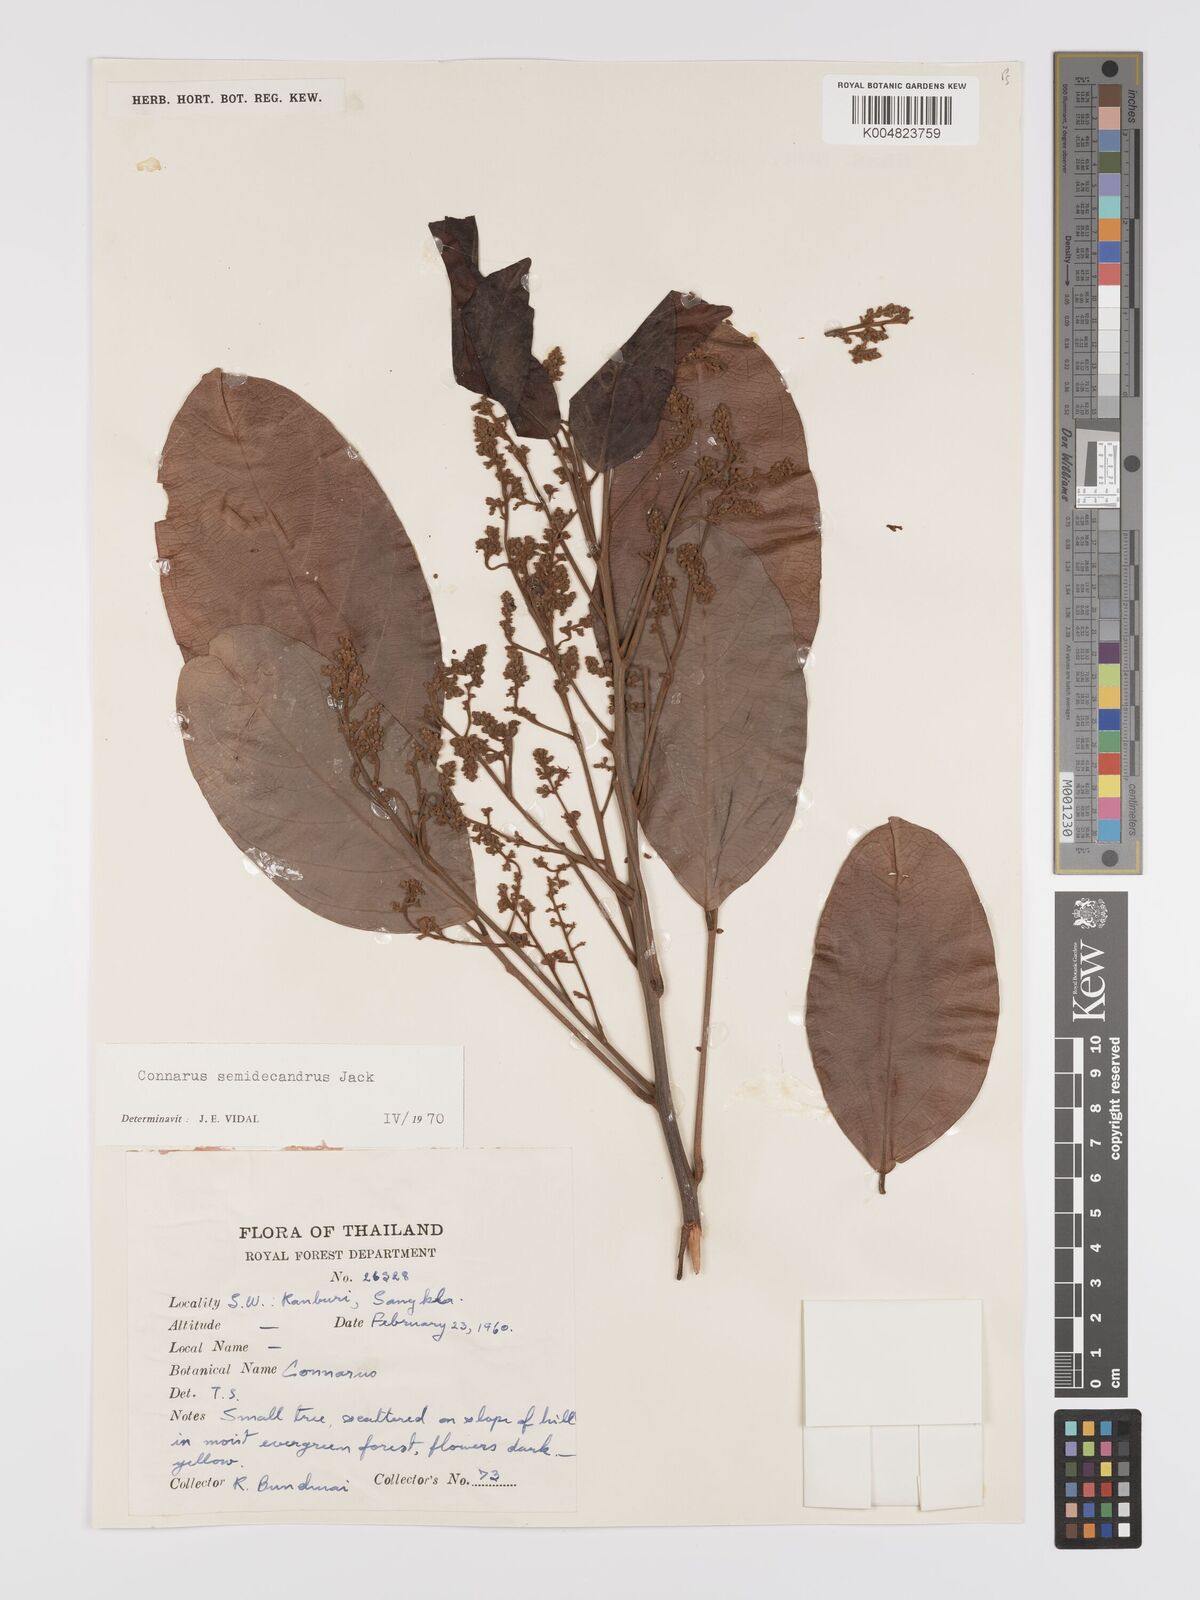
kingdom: Plantae
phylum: Tracheophyta
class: Magnoliopsida
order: Oxalidales
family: Connaraceae
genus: Connarus
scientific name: Connarus semidecandrus
